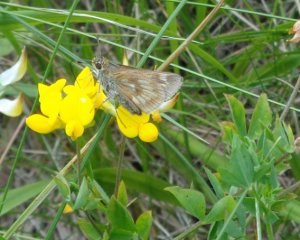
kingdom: Animalia
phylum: Arthropoda
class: Insecta
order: Lepidoptera
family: Hesperiidae
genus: Polites
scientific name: Polites
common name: Long Dash Skipper
